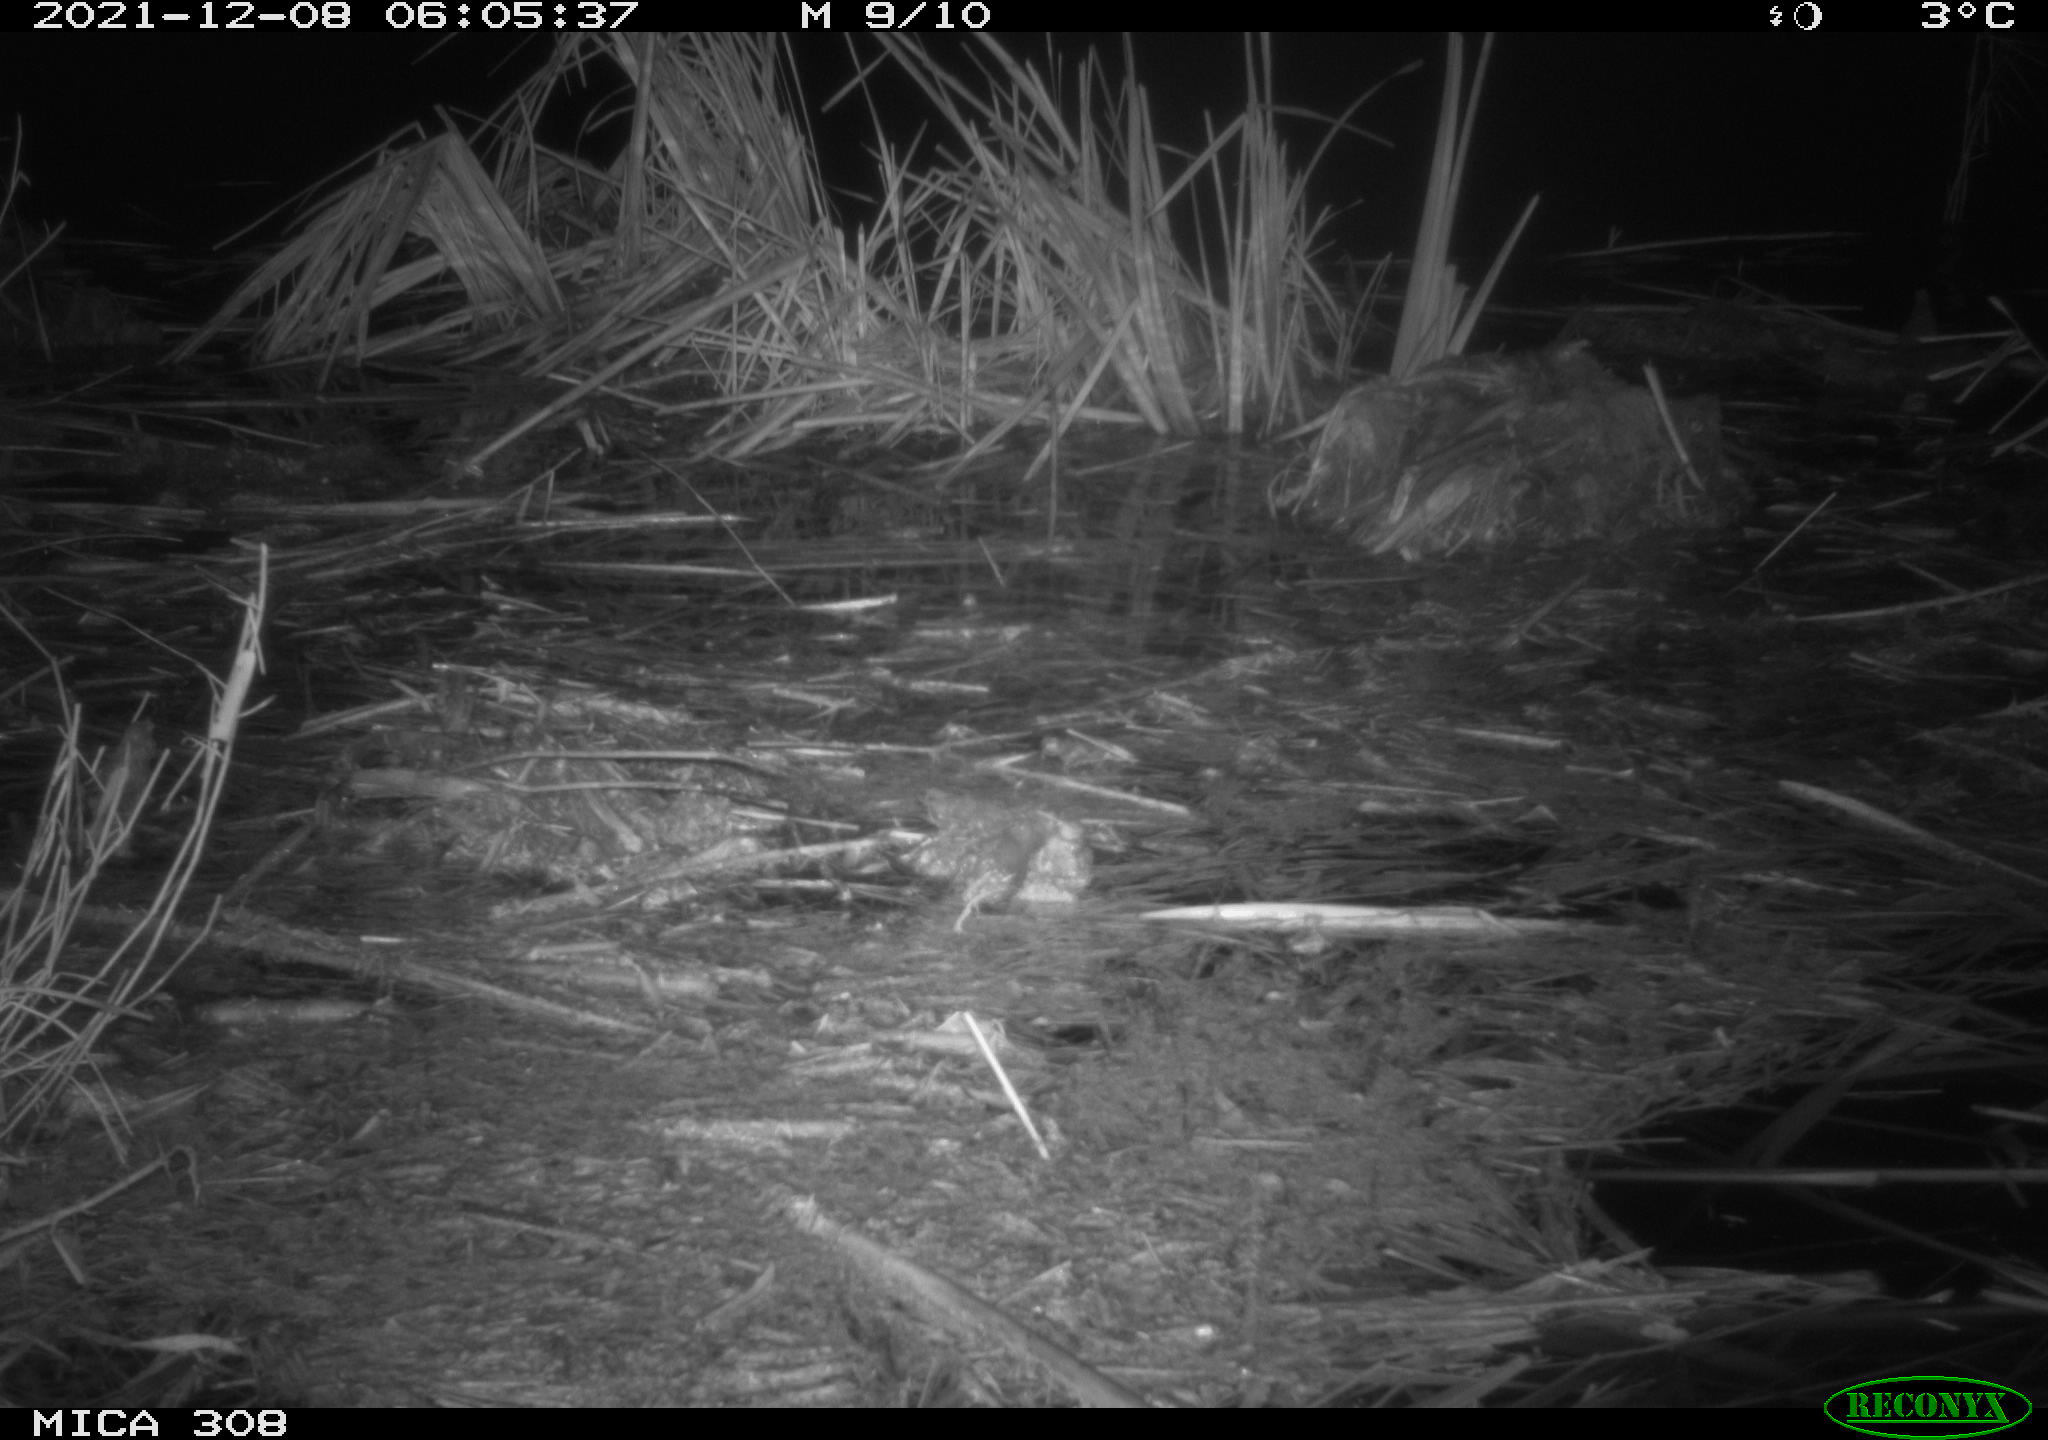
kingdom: Animalia
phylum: Chordata
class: Mammalia
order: Rodentia
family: Muridae
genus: Rattus
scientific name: Rattus norvegicus
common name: Brown rat
